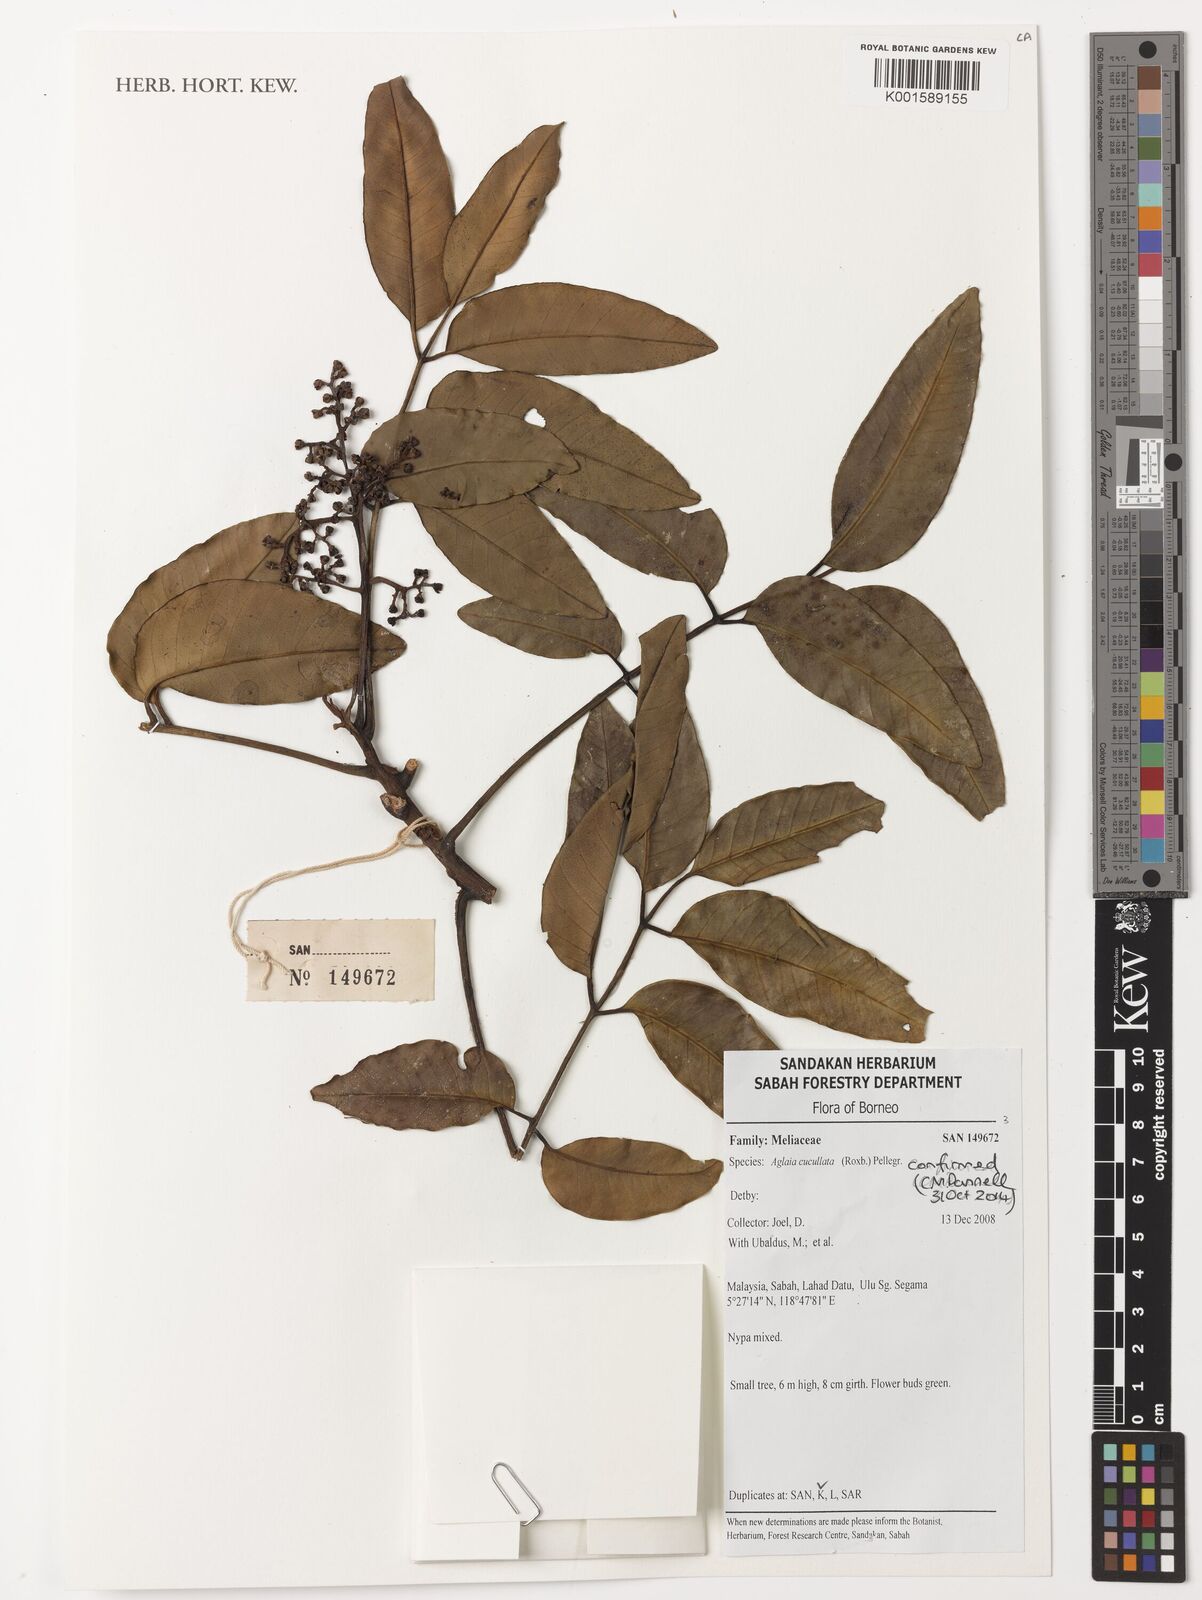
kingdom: Plantae
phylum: Tracheophyta
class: Magnoliopsida
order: Sapindales
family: Meliaceae
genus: Aglaia
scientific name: Aglaia cucullata
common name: Pacific maple
